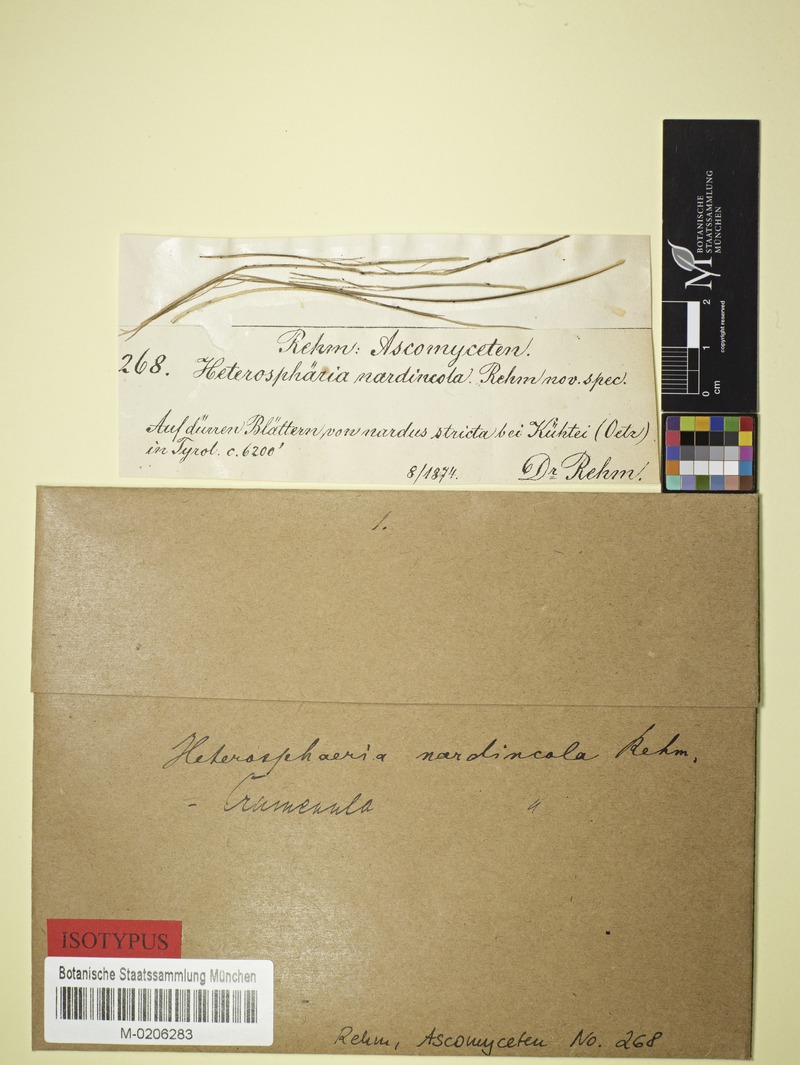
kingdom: Fungi
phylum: Ascomycota
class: Leotiomycetes
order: Helotiales
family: Cenangiaceae
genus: Crumenula
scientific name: Crumenula nardincola
